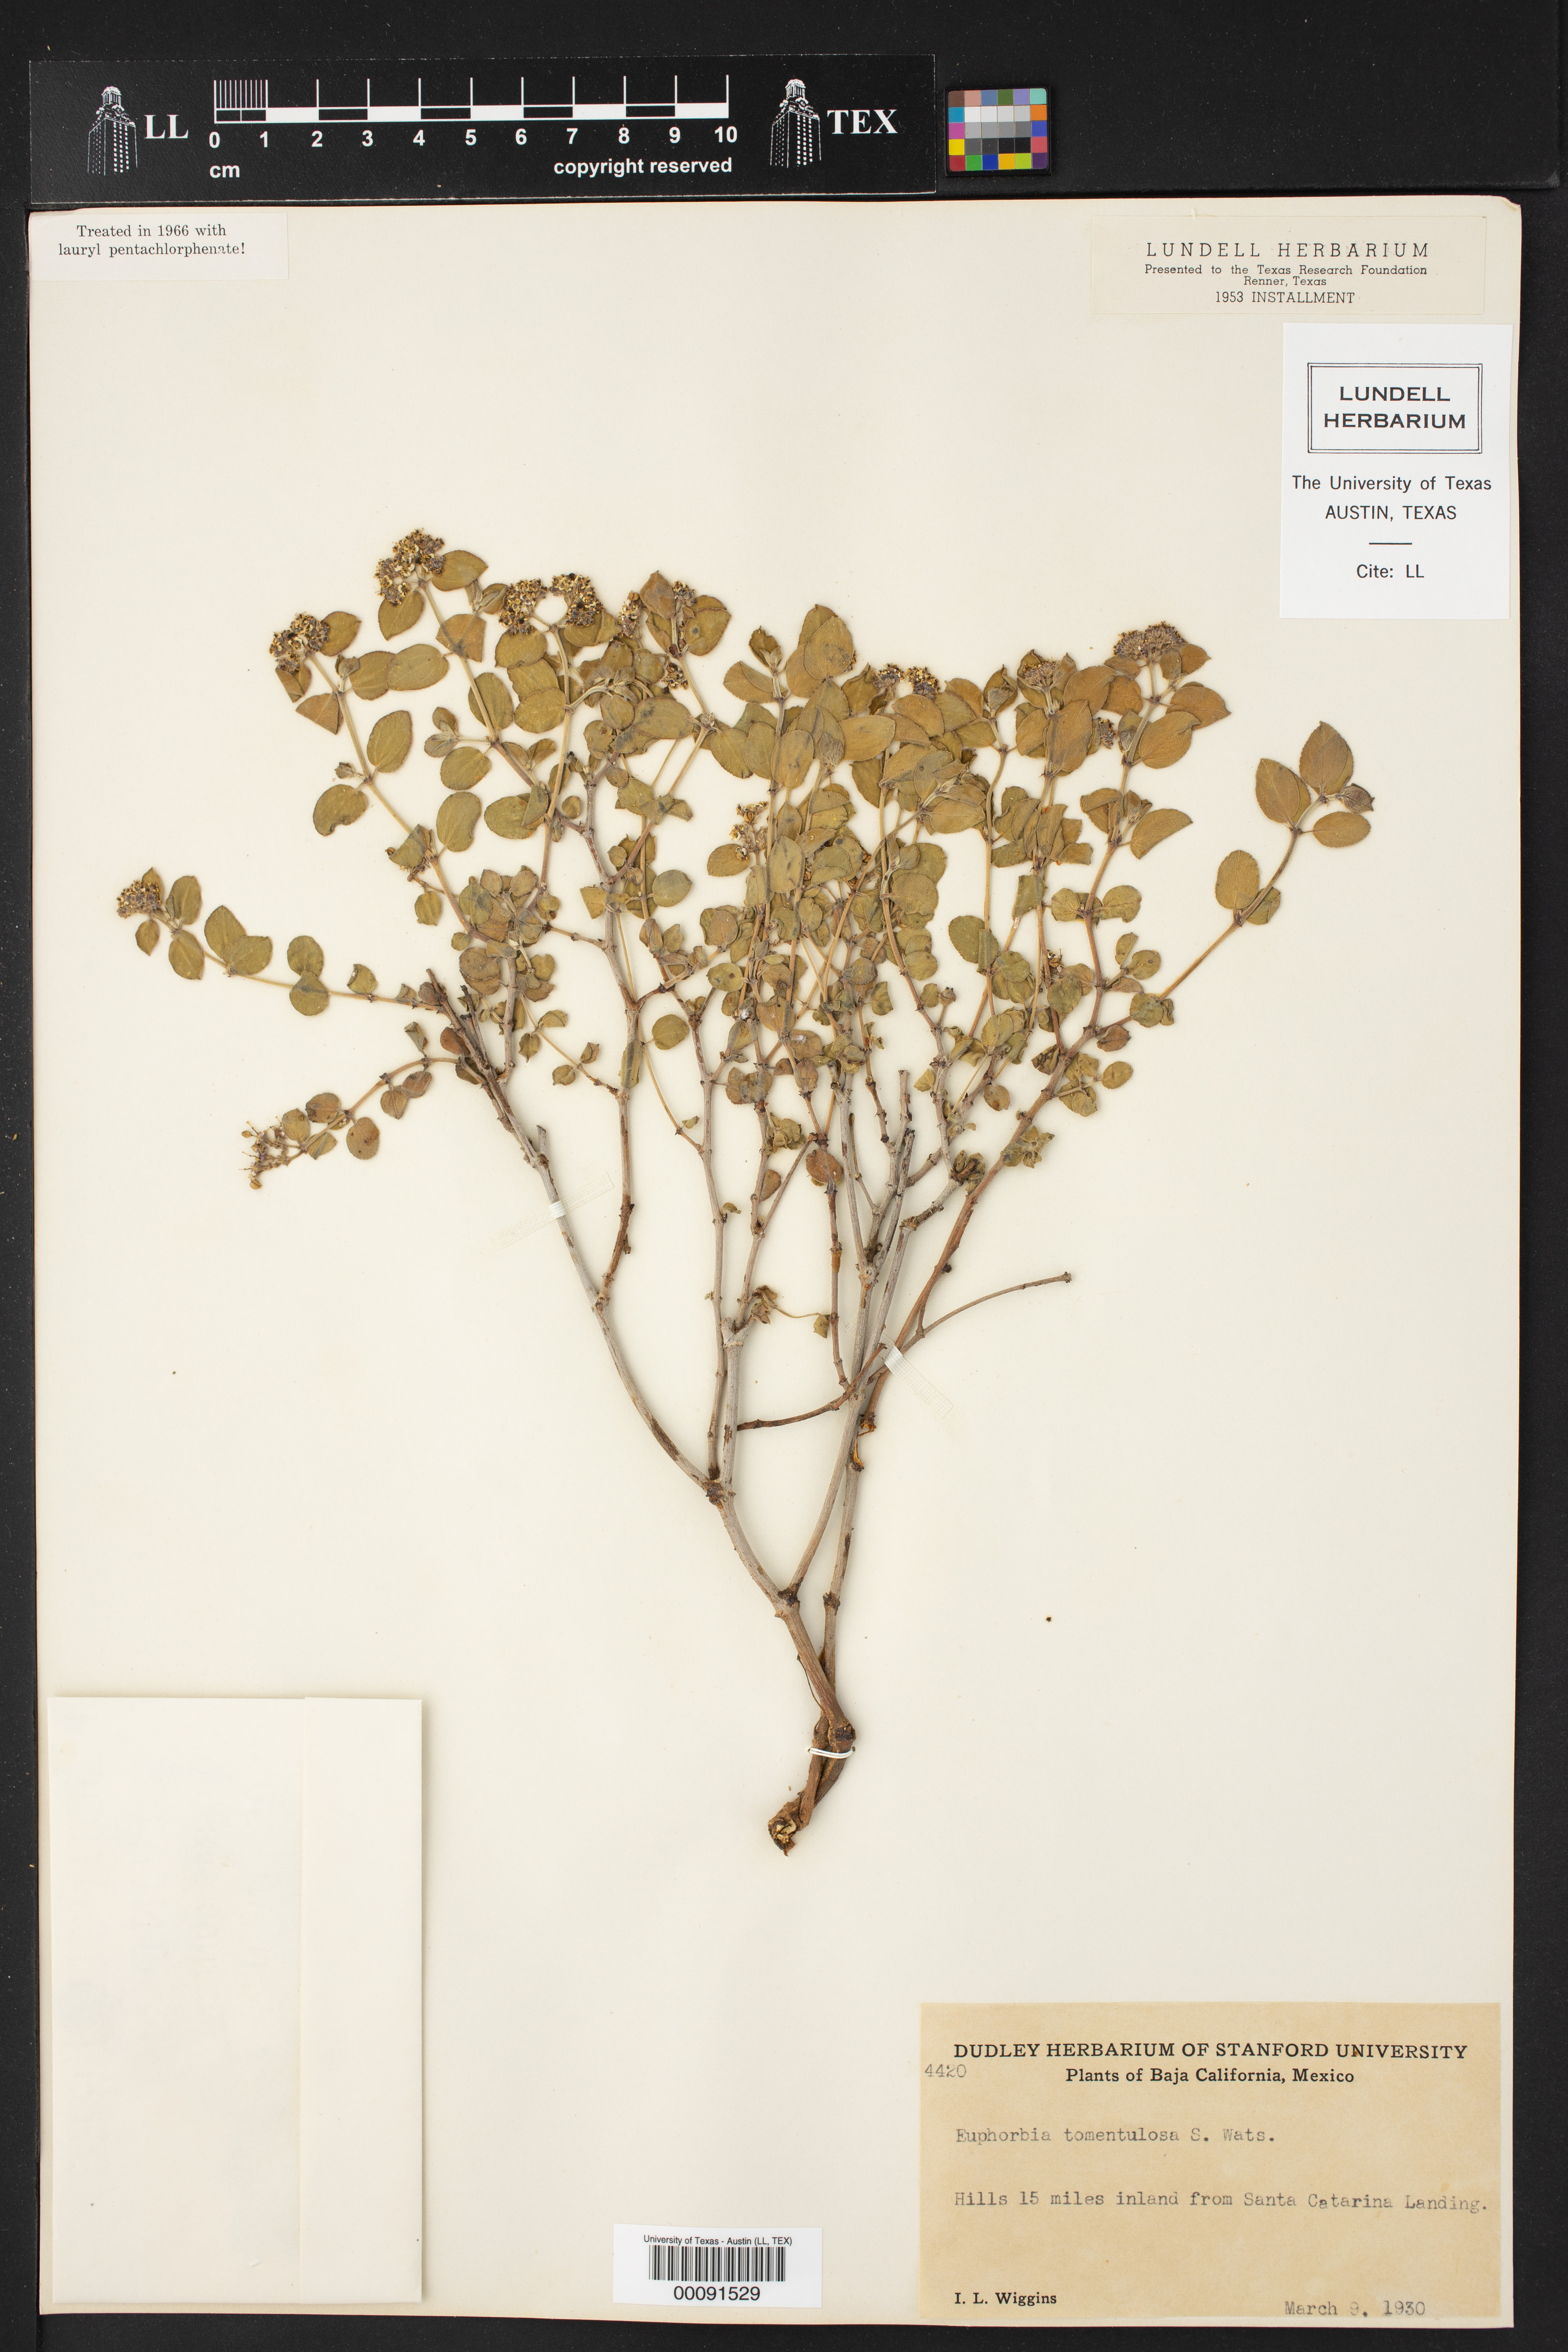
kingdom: Plantae
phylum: Tracheophyta
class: Magnoliopsida
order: Malpighiales
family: Euphorbiaceae
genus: Euphorbia
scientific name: Euphorbia tomentulosa
